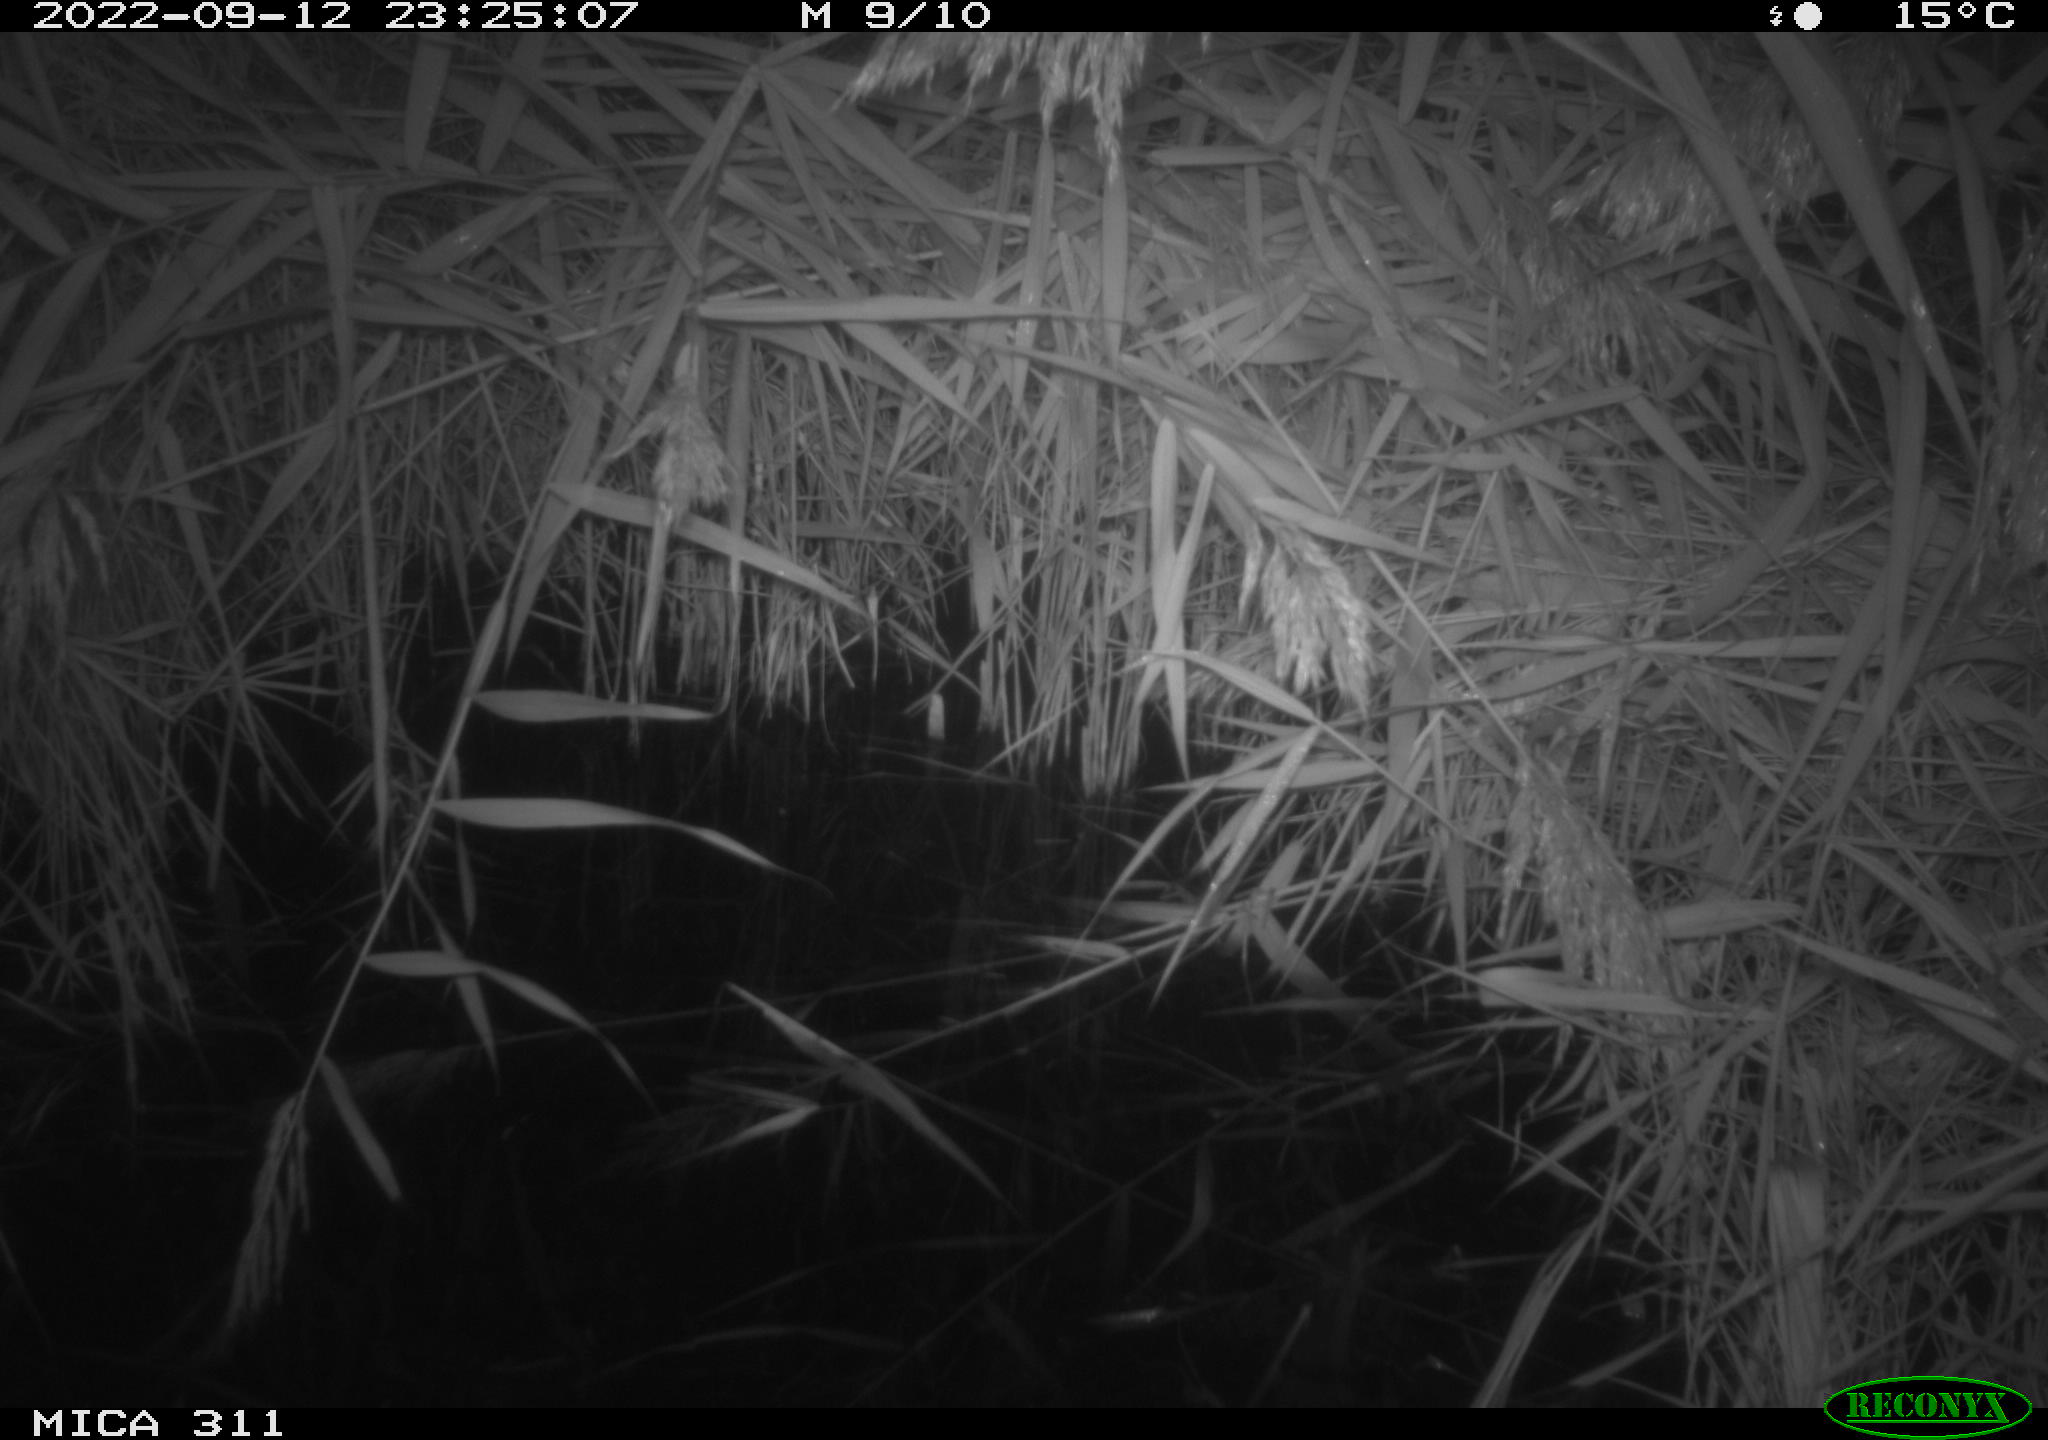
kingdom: Animalia
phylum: Chordata
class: Mammalia
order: Rodentia
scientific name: Rodentia
